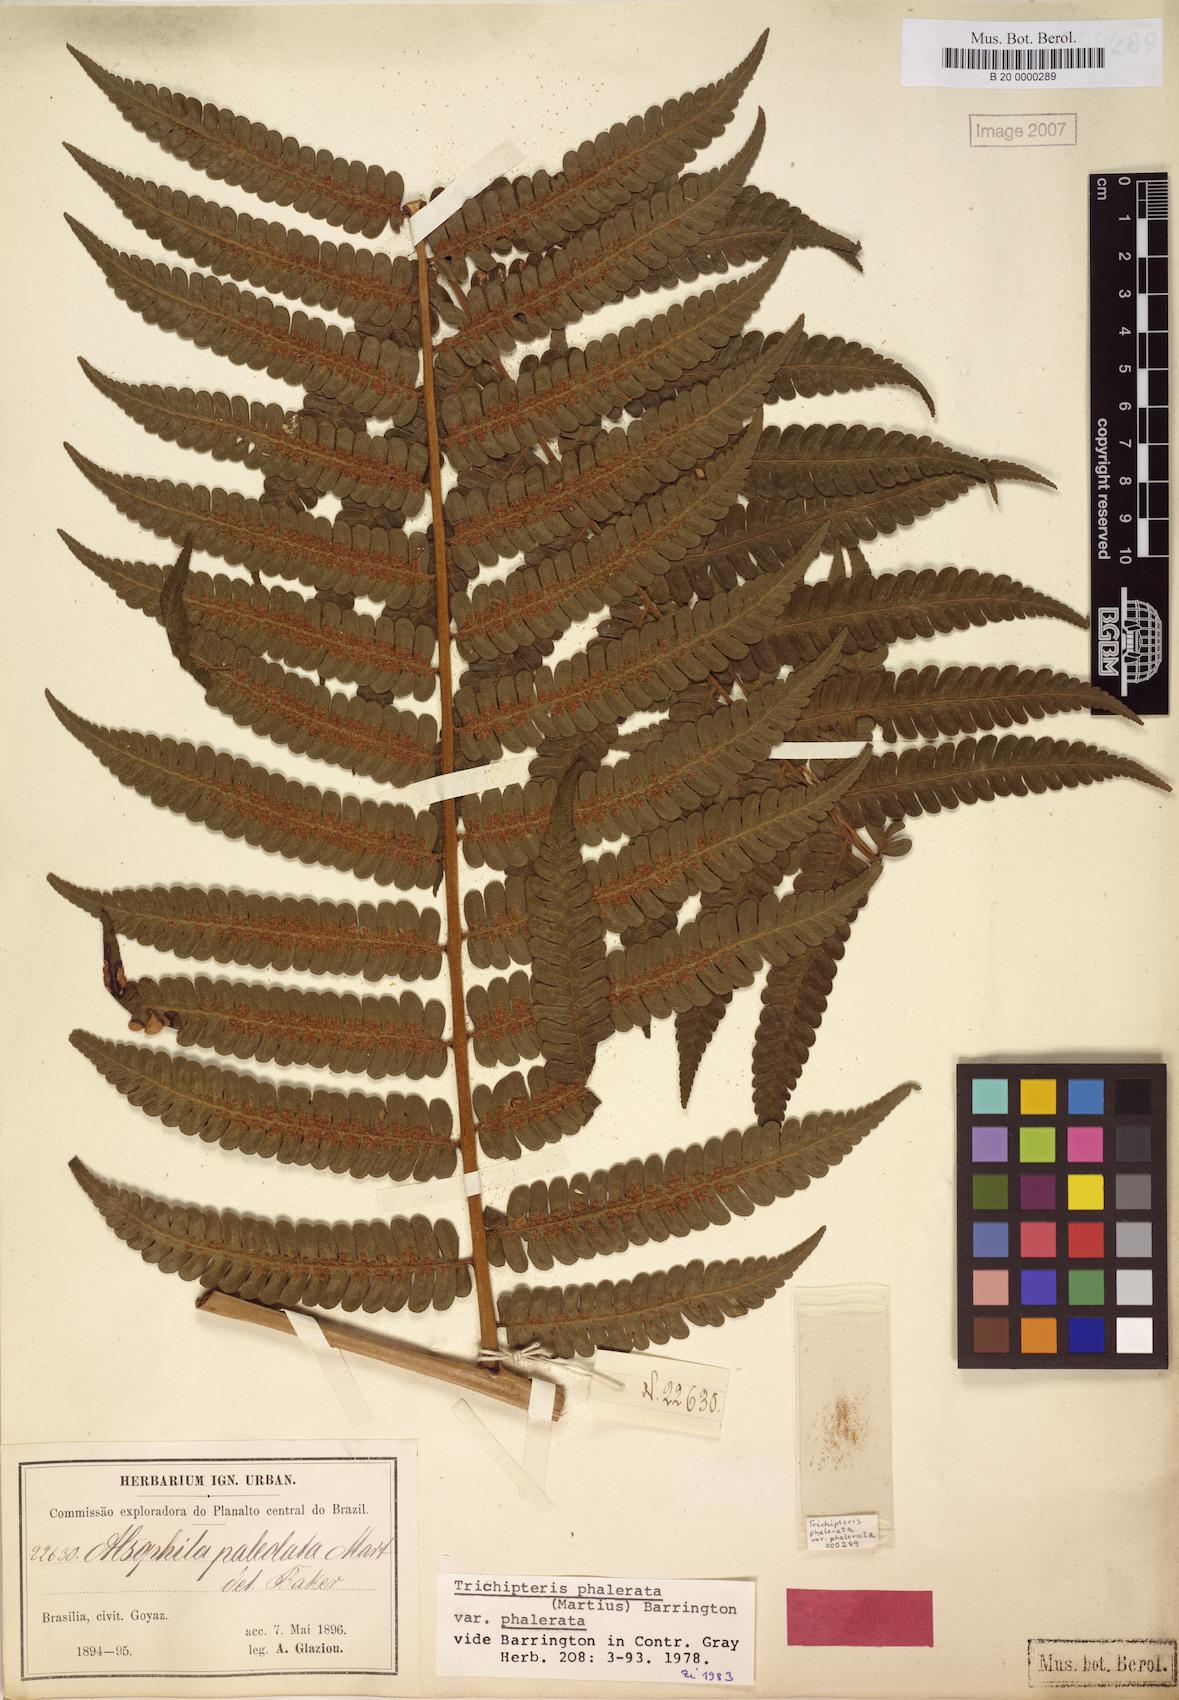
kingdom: Plantae
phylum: Tracheophyta
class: Polypodiopsida
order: Cyatheales
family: Cyatheaceae
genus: Cyathea
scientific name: Cyathea phalerata
